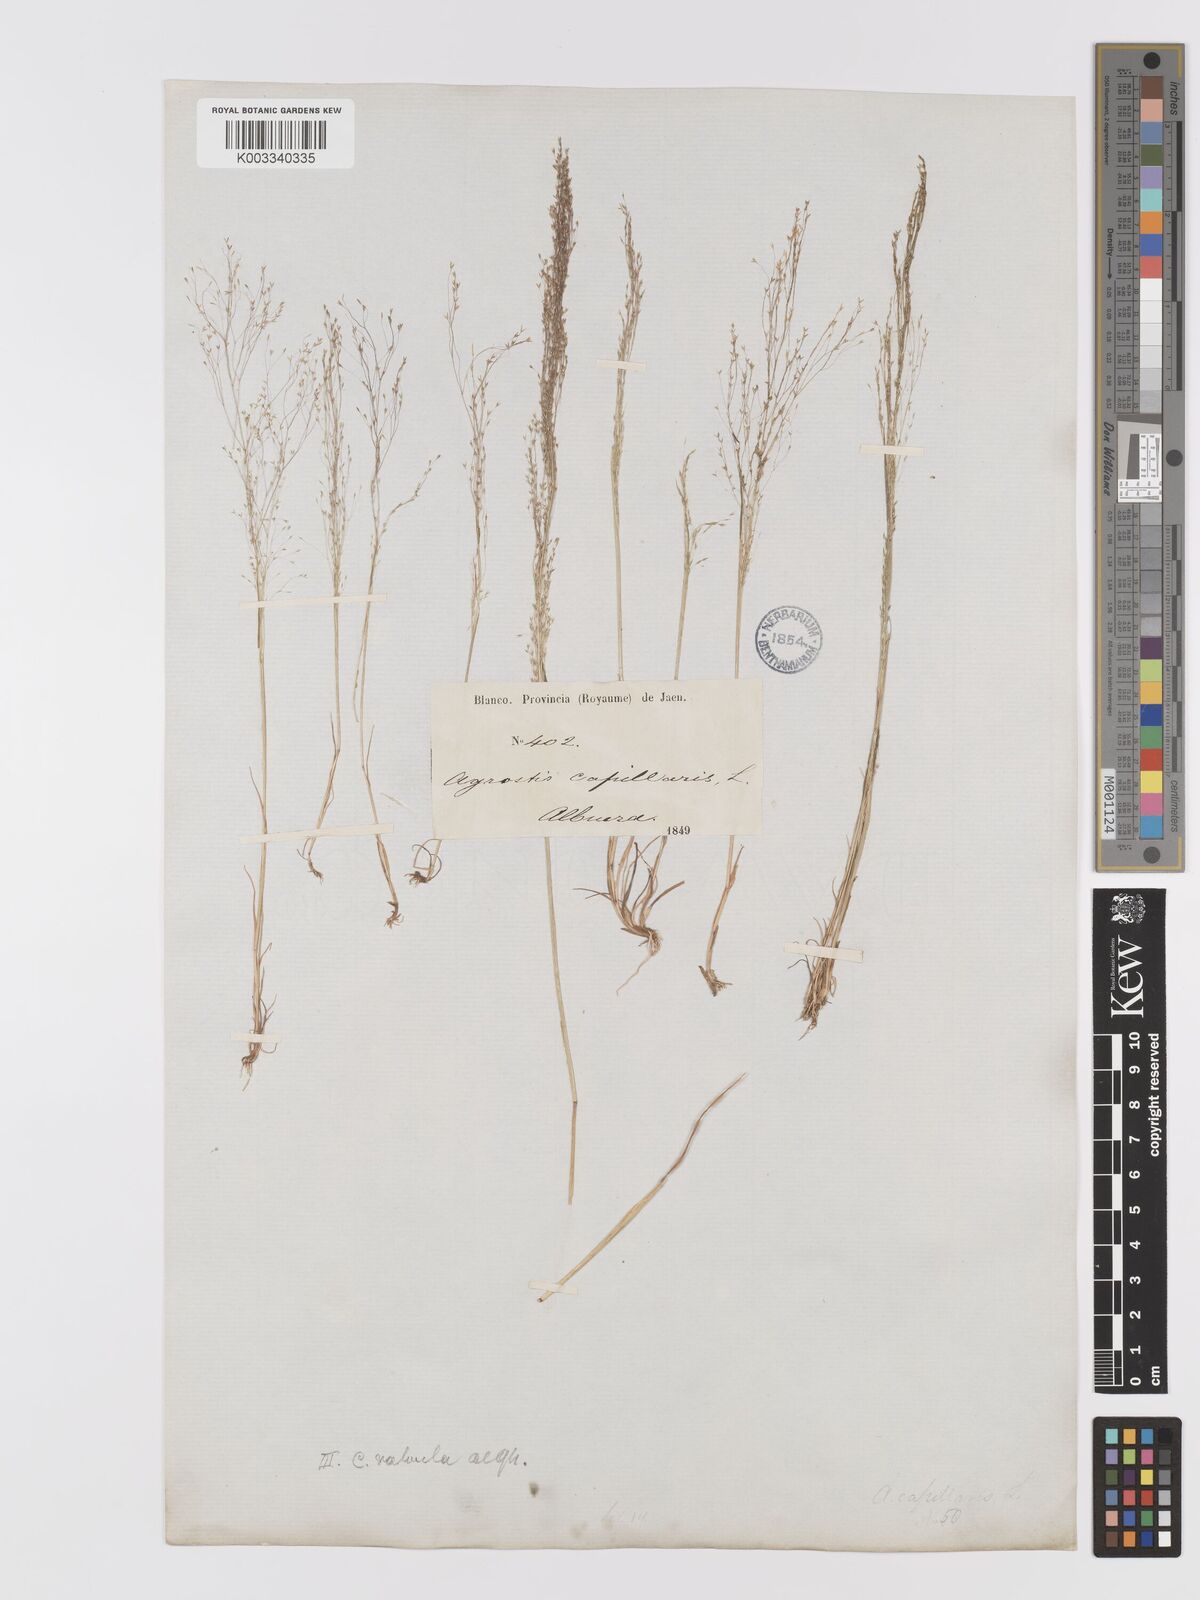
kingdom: Plantae
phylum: Tracheophyta
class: Liliopsida
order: Poales
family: Poaceae
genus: Agrostis
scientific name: Agrostis nebulosa
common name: Cloud grass
